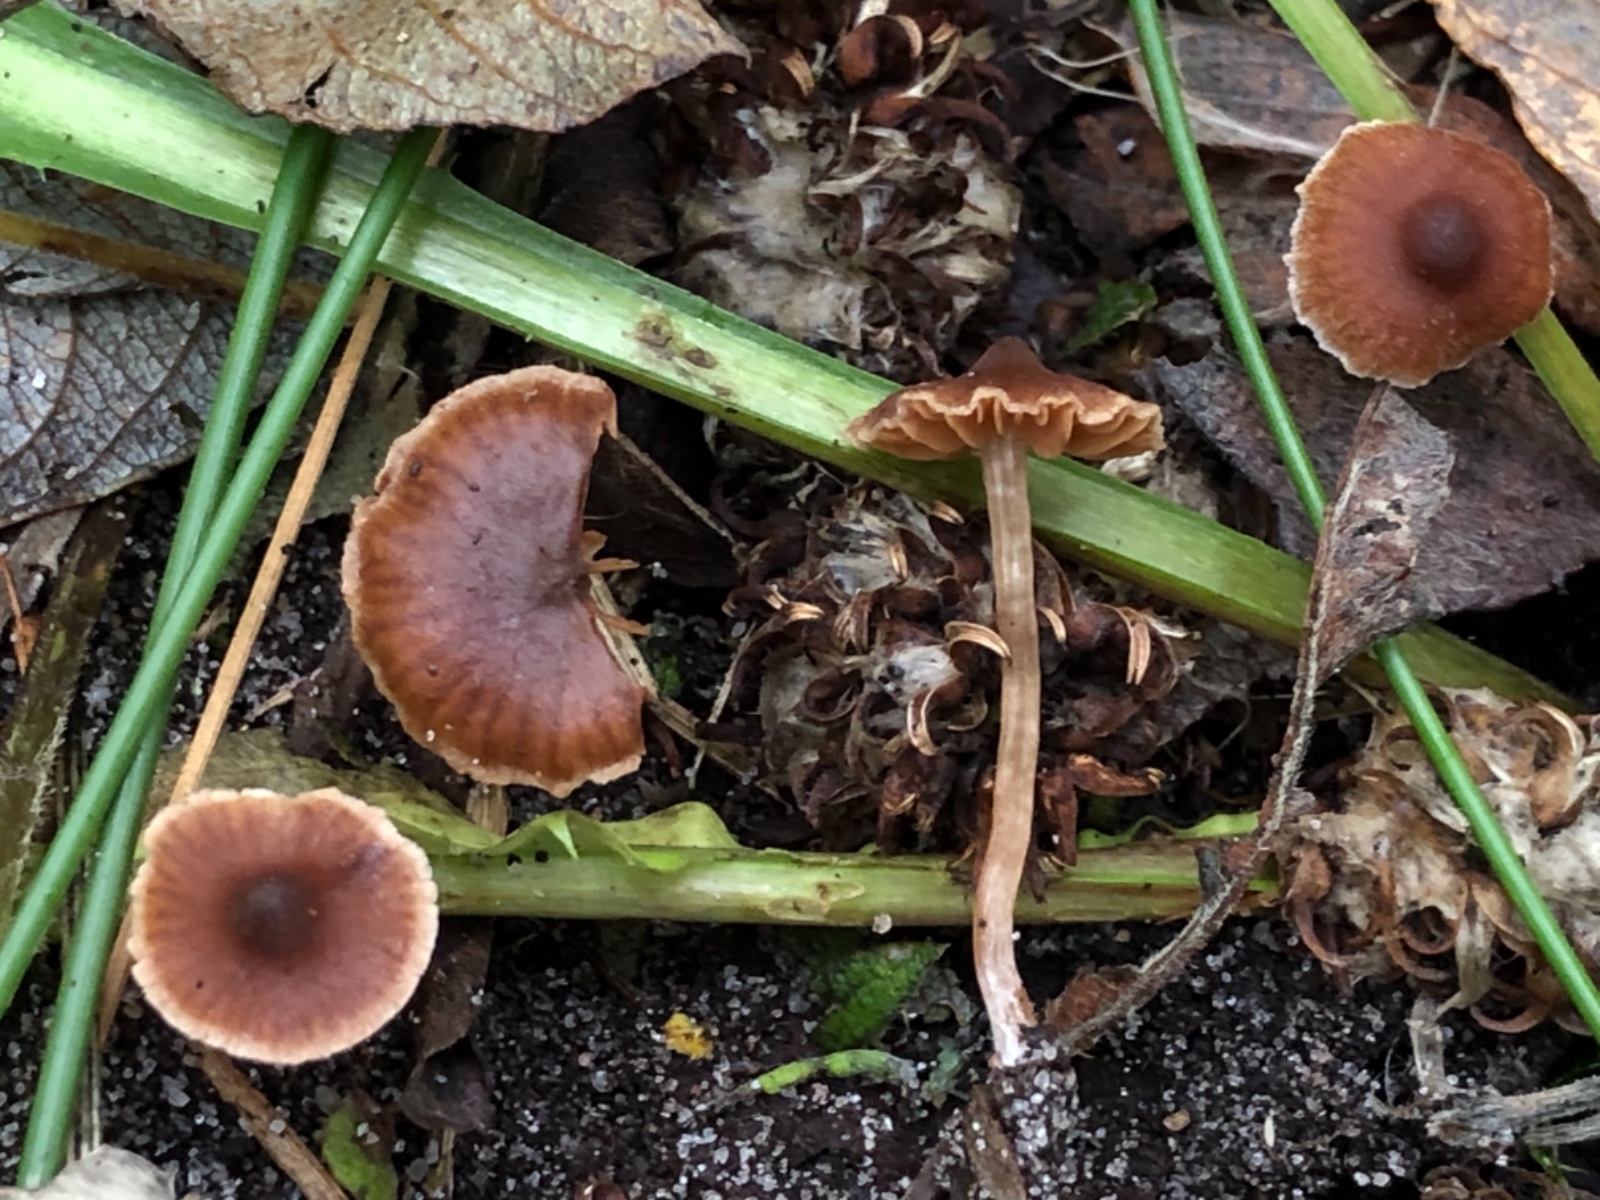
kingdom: Fungi
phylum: Basidiomycota
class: Agaricomycetes
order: Agaricales
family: Cortinariaceae
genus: Cortinarius
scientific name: Cortinarius subtilior
